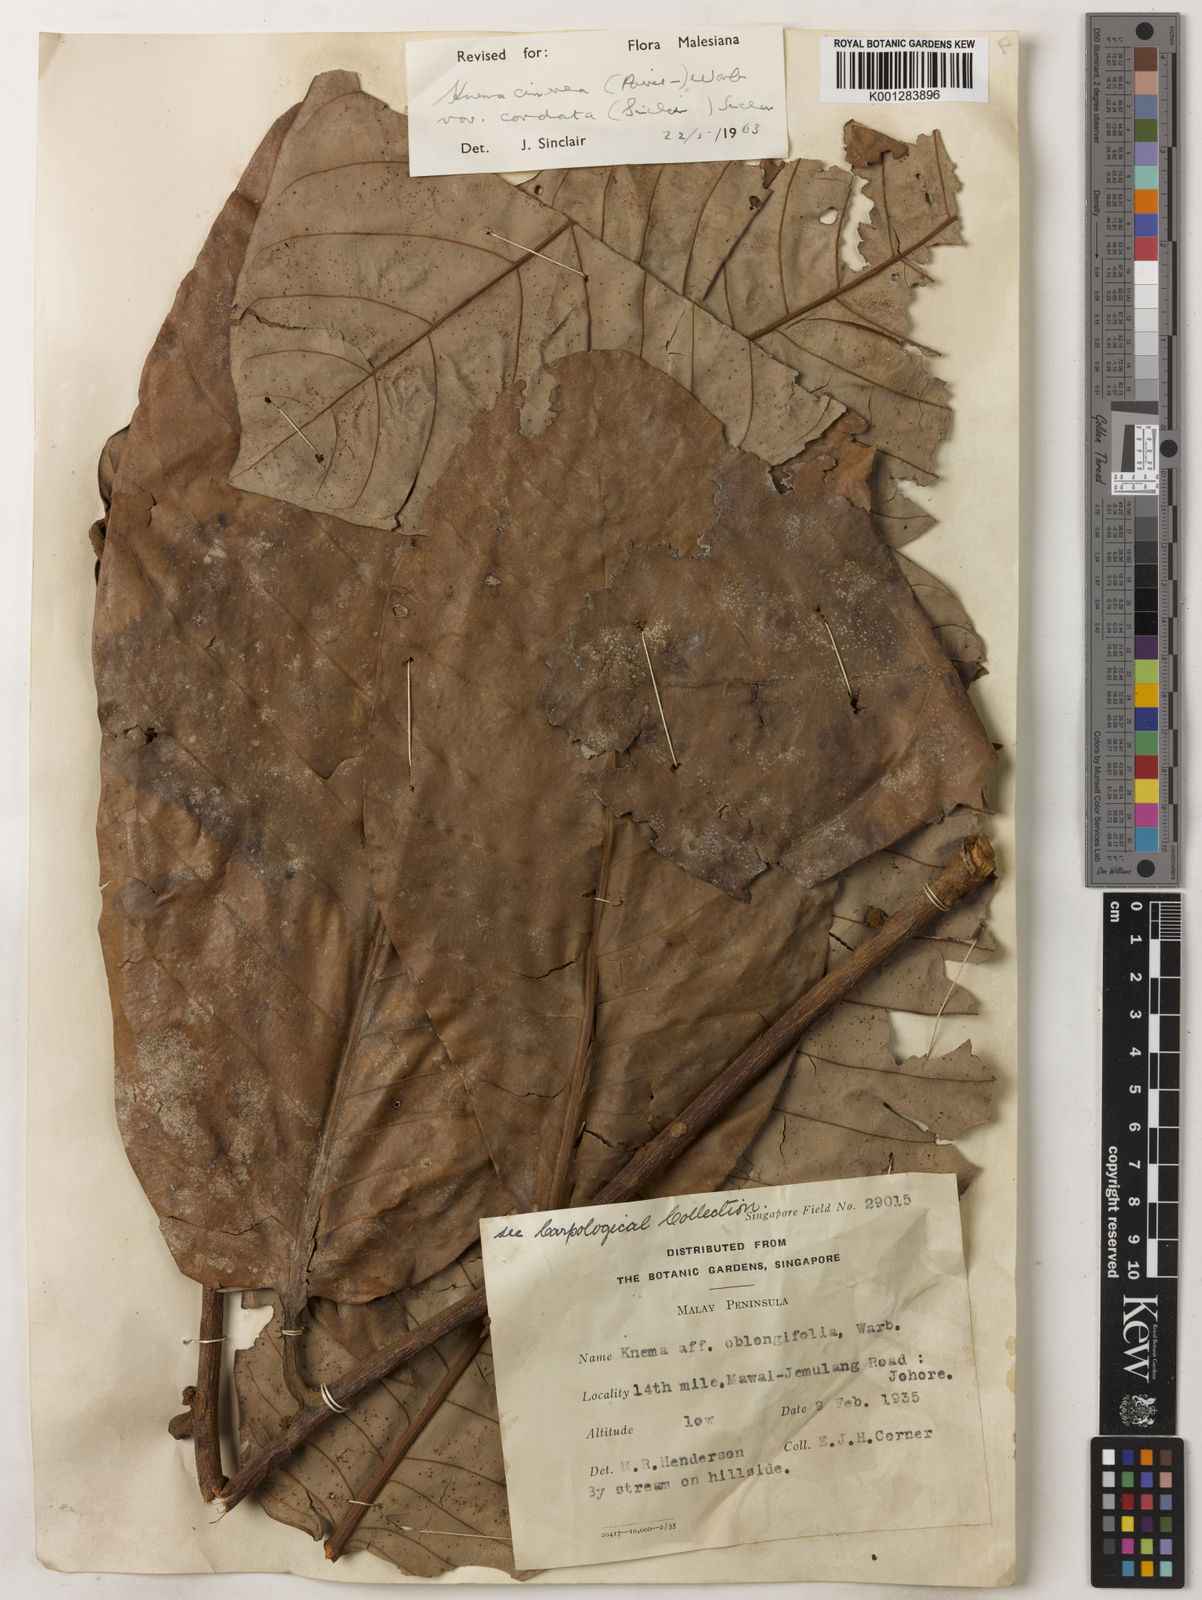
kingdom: Plantae
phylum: Tracheophyta
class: Magnoliopsida
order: Magnoliales
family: Myristicaceae
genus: Knema
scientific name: Knema
